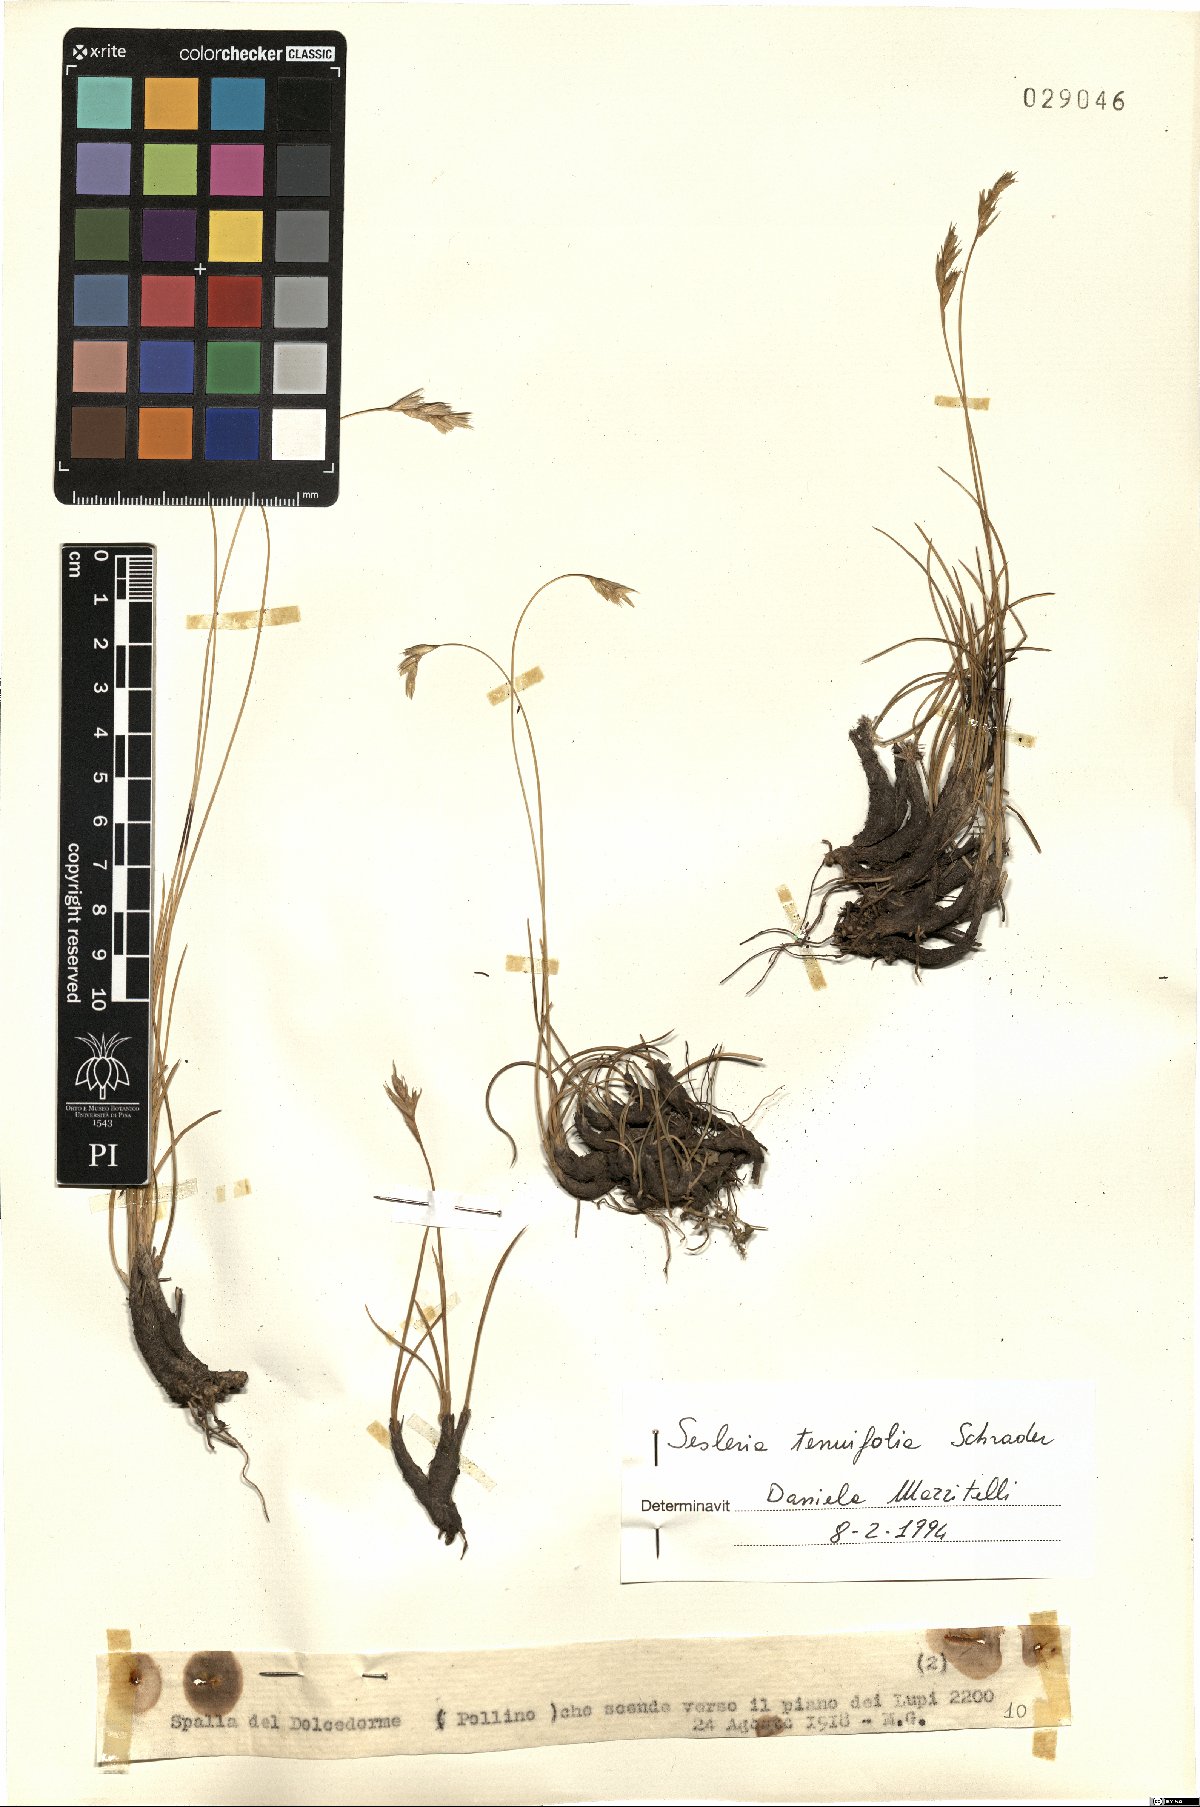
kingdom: Plantae
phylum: Tracheophyta
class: Liliopsida
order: Poales
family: Poaceae
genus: Sesleria
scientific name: Sesleria juncifolia
